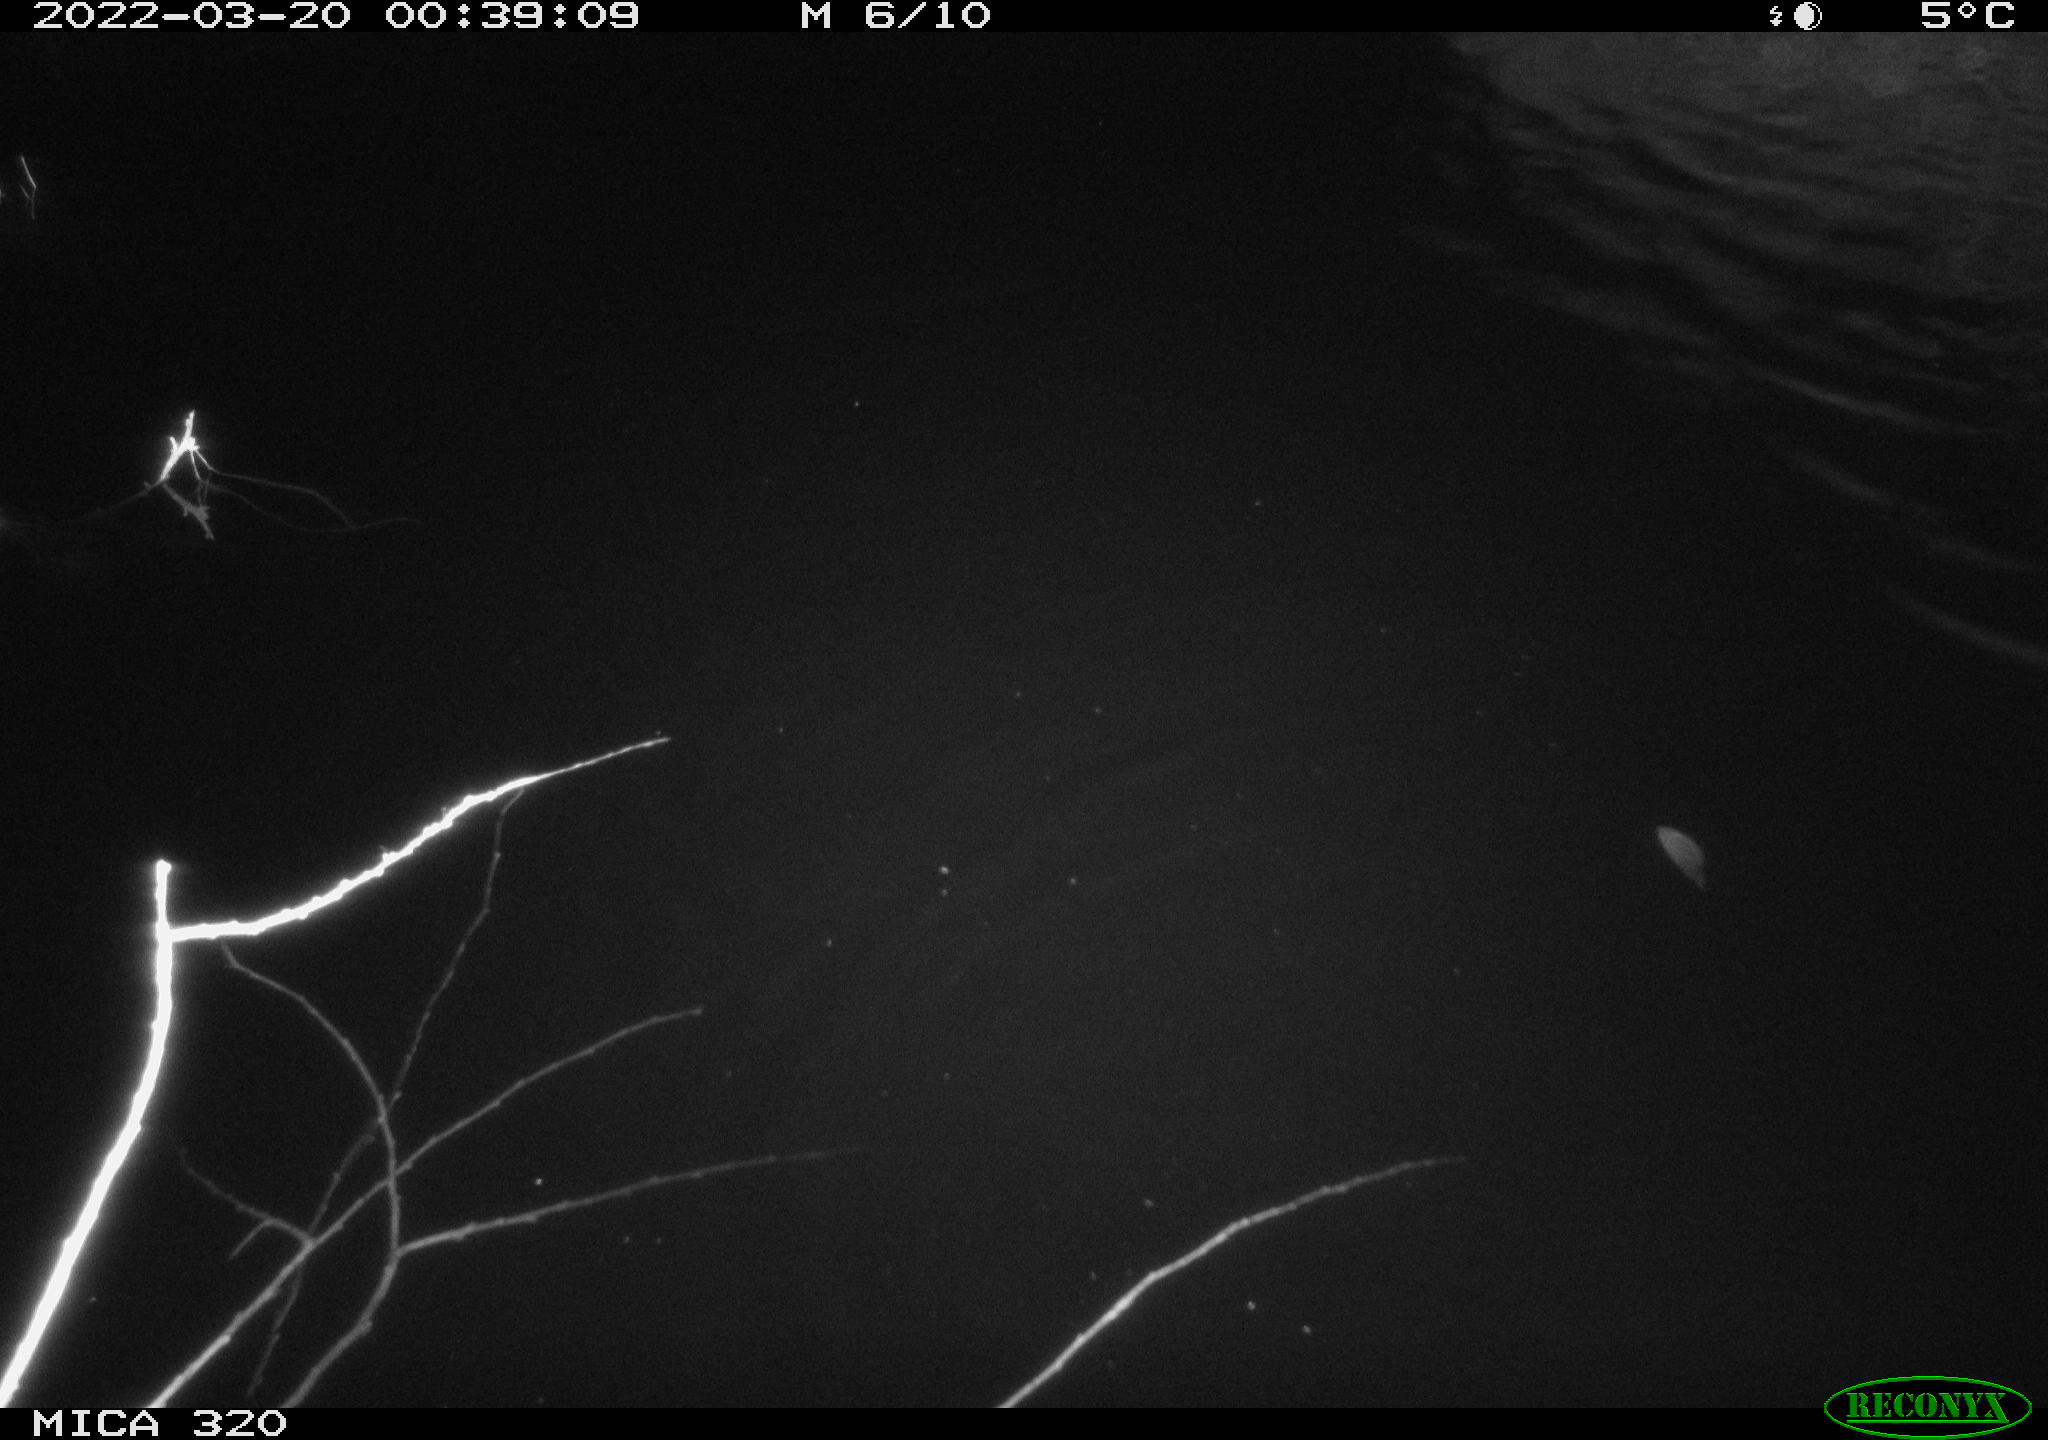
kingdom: Animalia
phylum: Chordata
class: Aves
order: Anseriformes
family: Anatidae
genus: Anas
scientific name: Anas platyrhynchos
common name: Mallard
